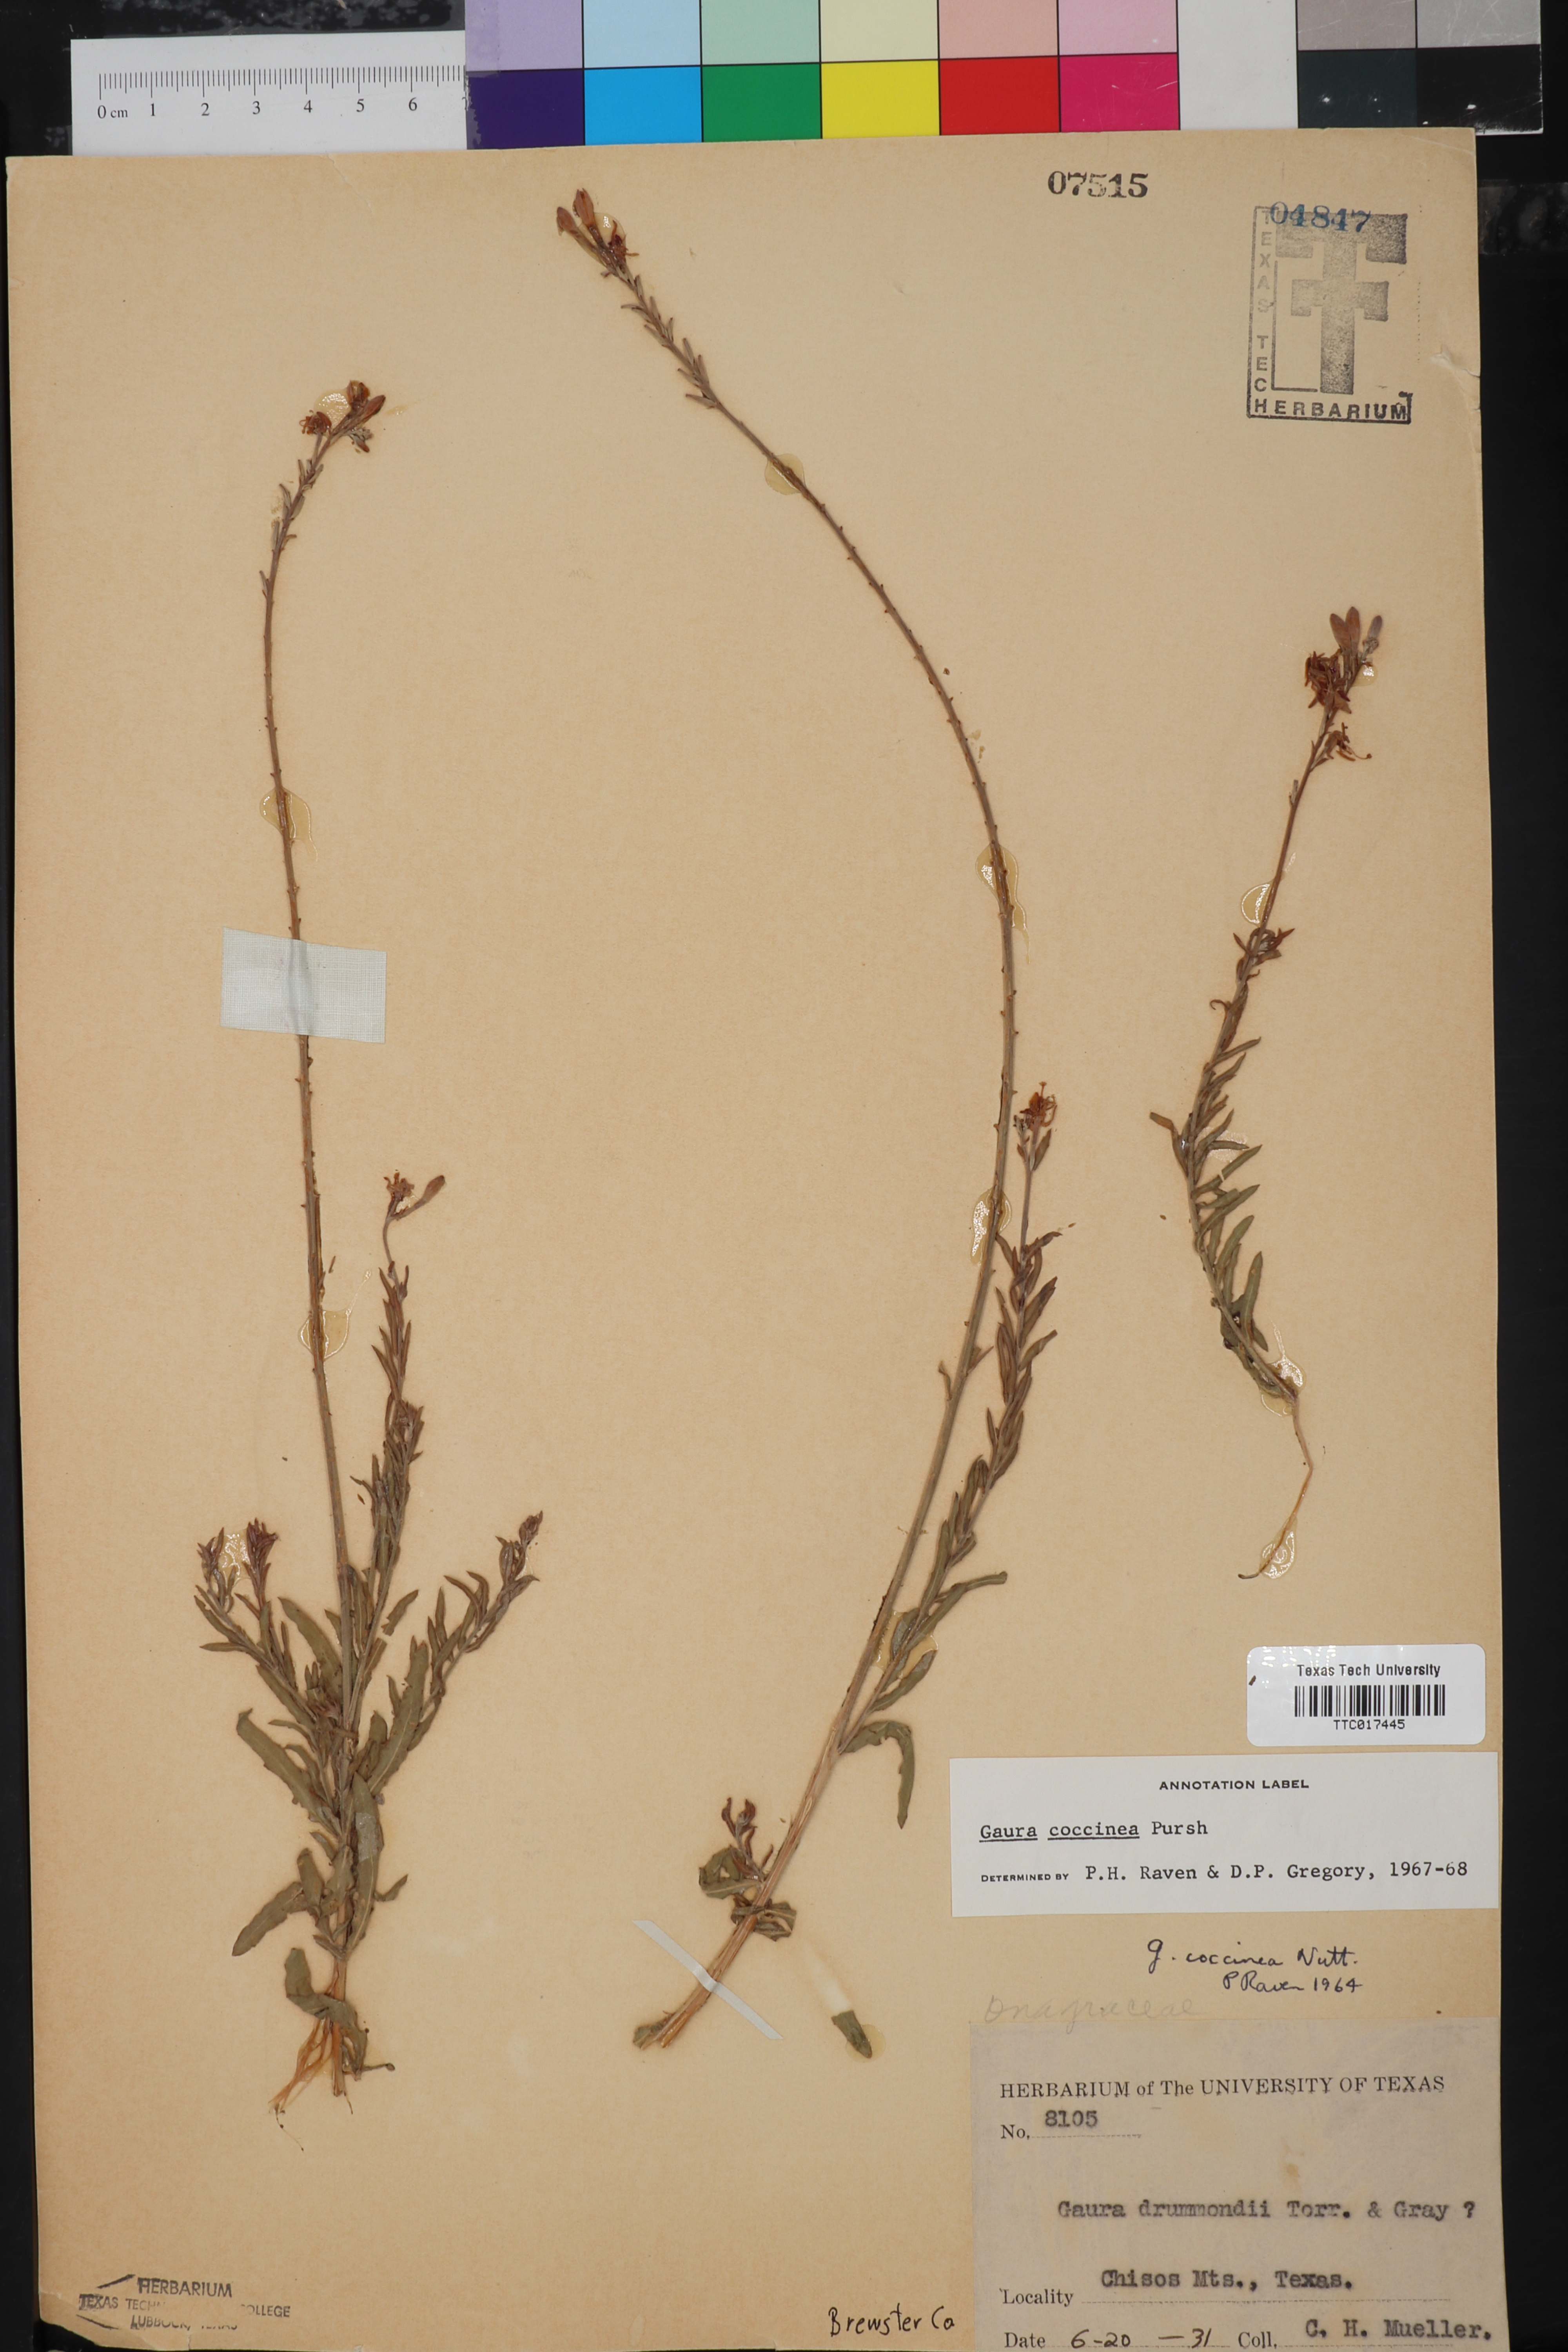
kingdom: Plantae
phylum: Tracheophyta
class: Magnoliopsida
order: Myrtales
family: Onagraceae
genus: Oenothera
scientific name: Oenothera suffrutescens
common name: Scarlet beeblossom
